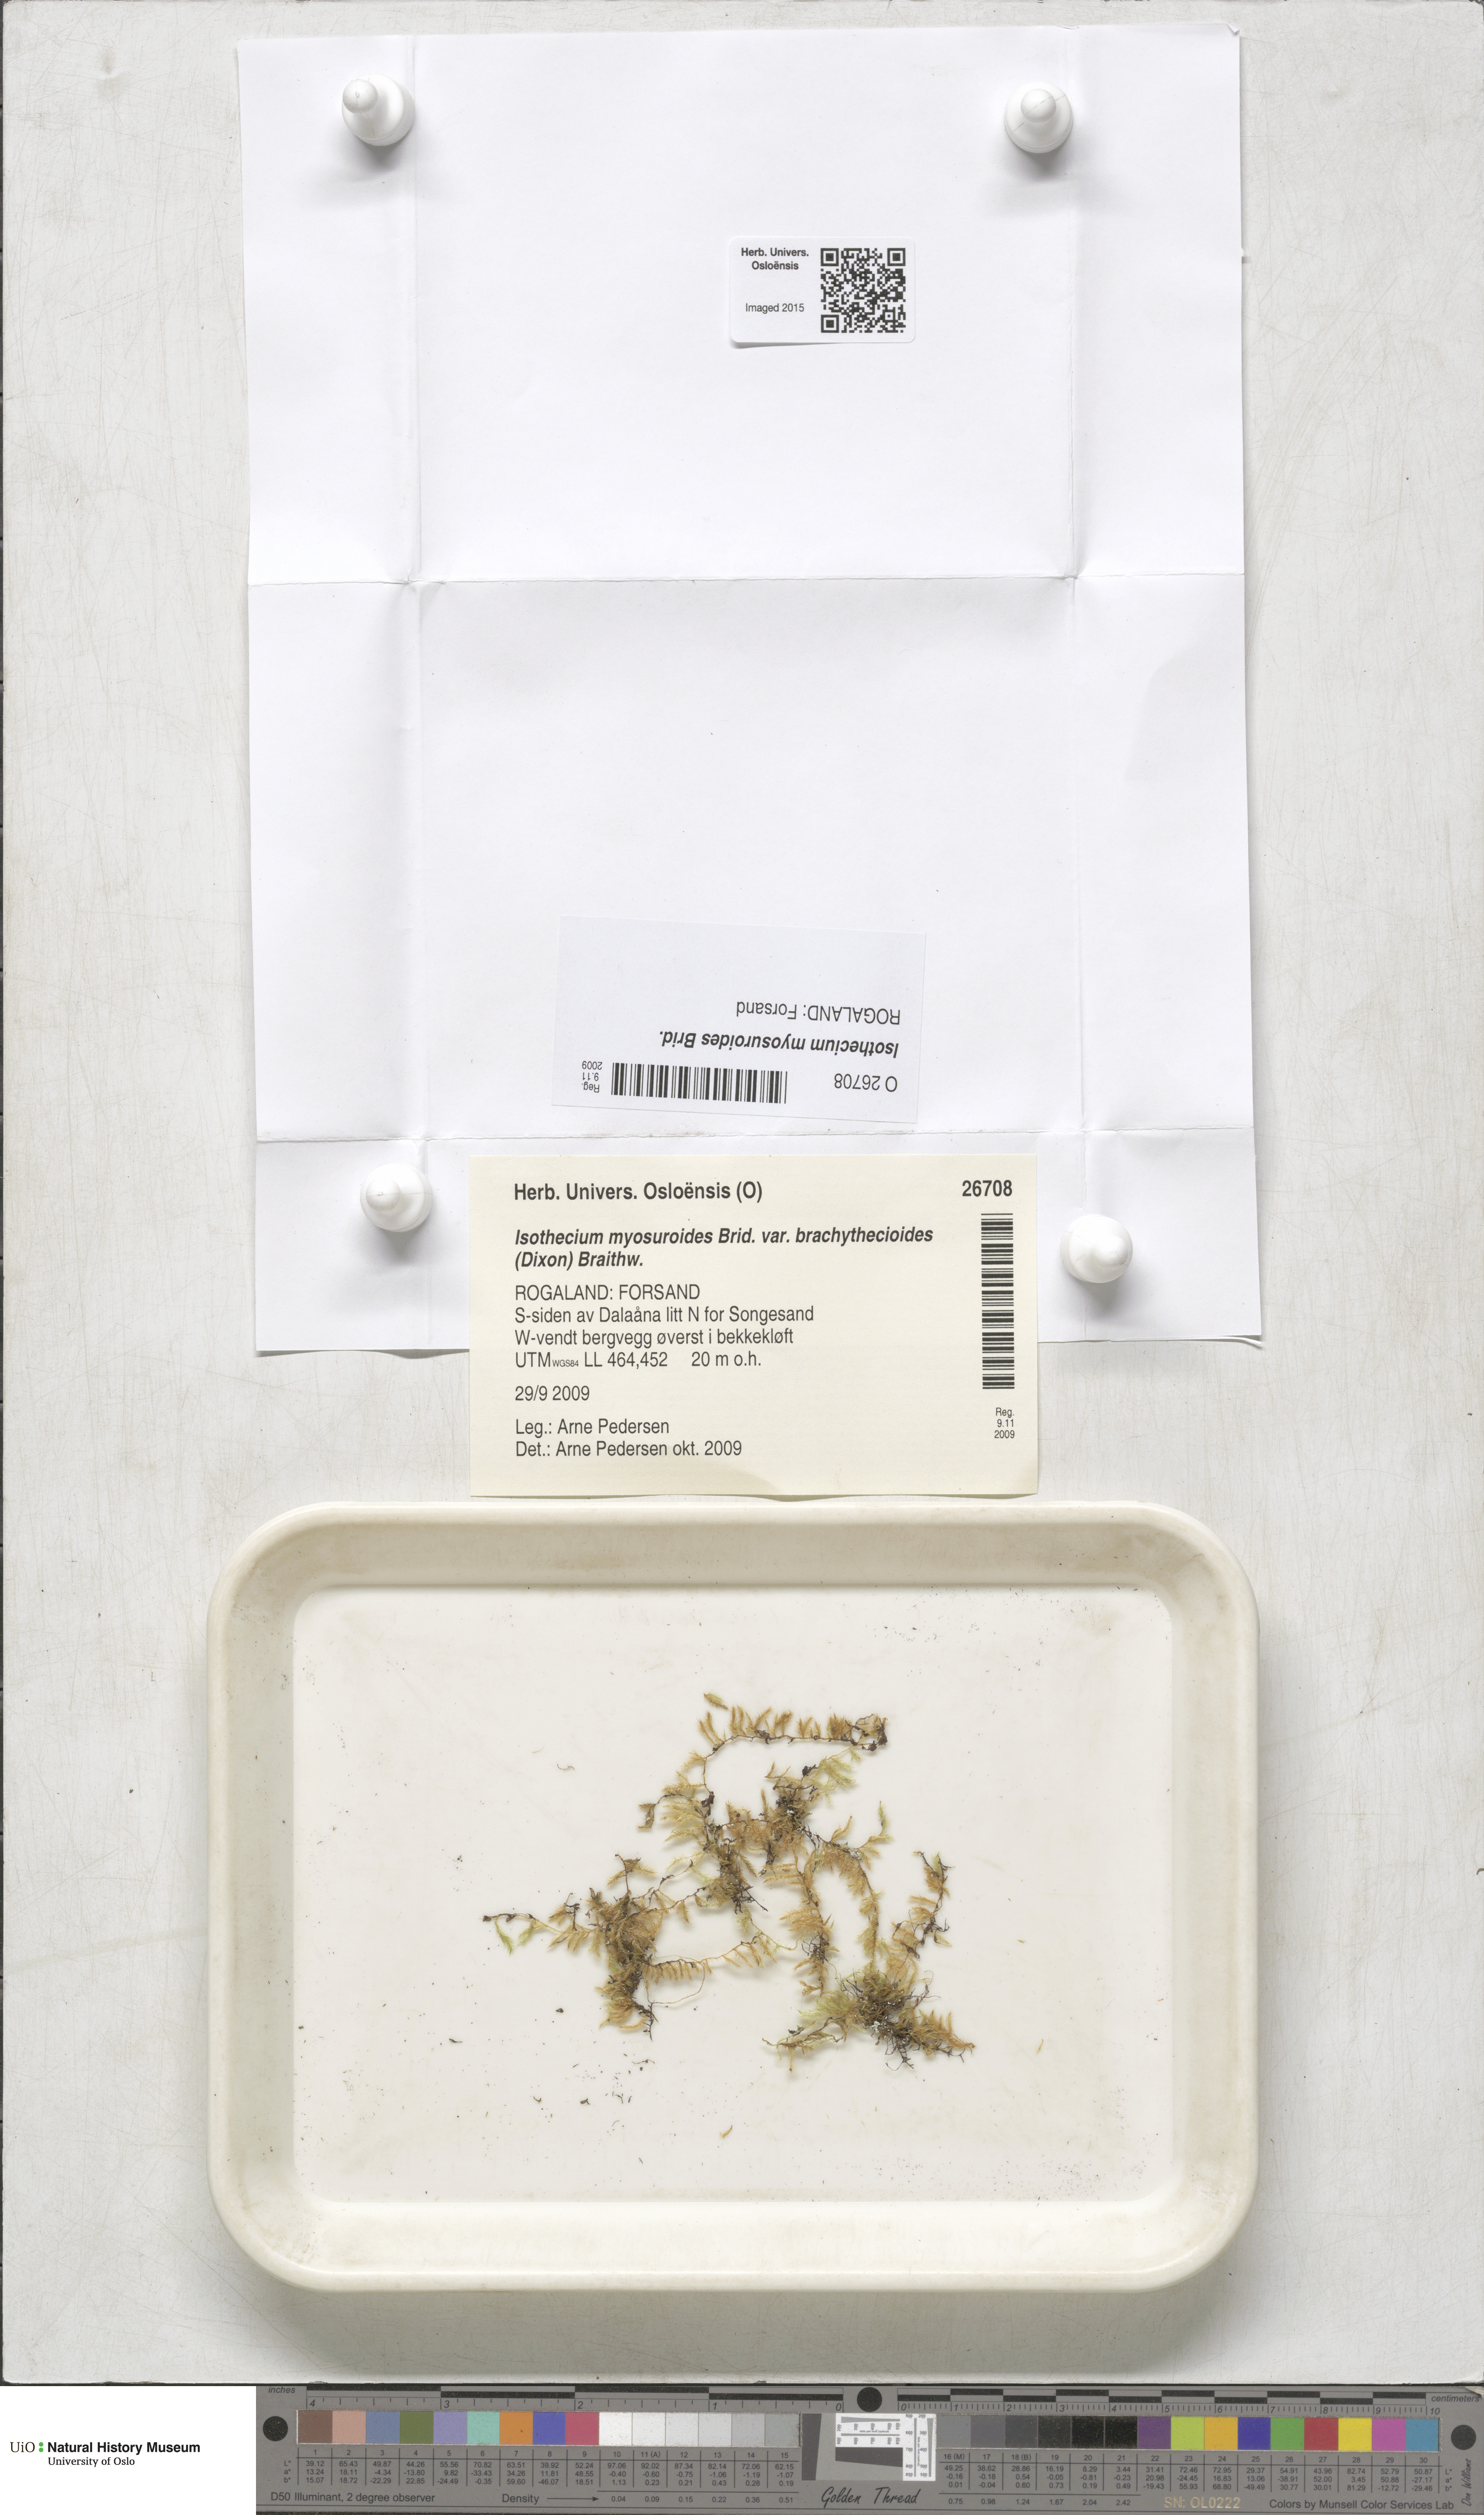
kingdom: Plantae
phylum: Bryophyta
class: Bryopsida
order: Hypnales
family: Lembophyllaceae
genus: Pseudisothecium
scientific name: Pseudisothecium interludens
